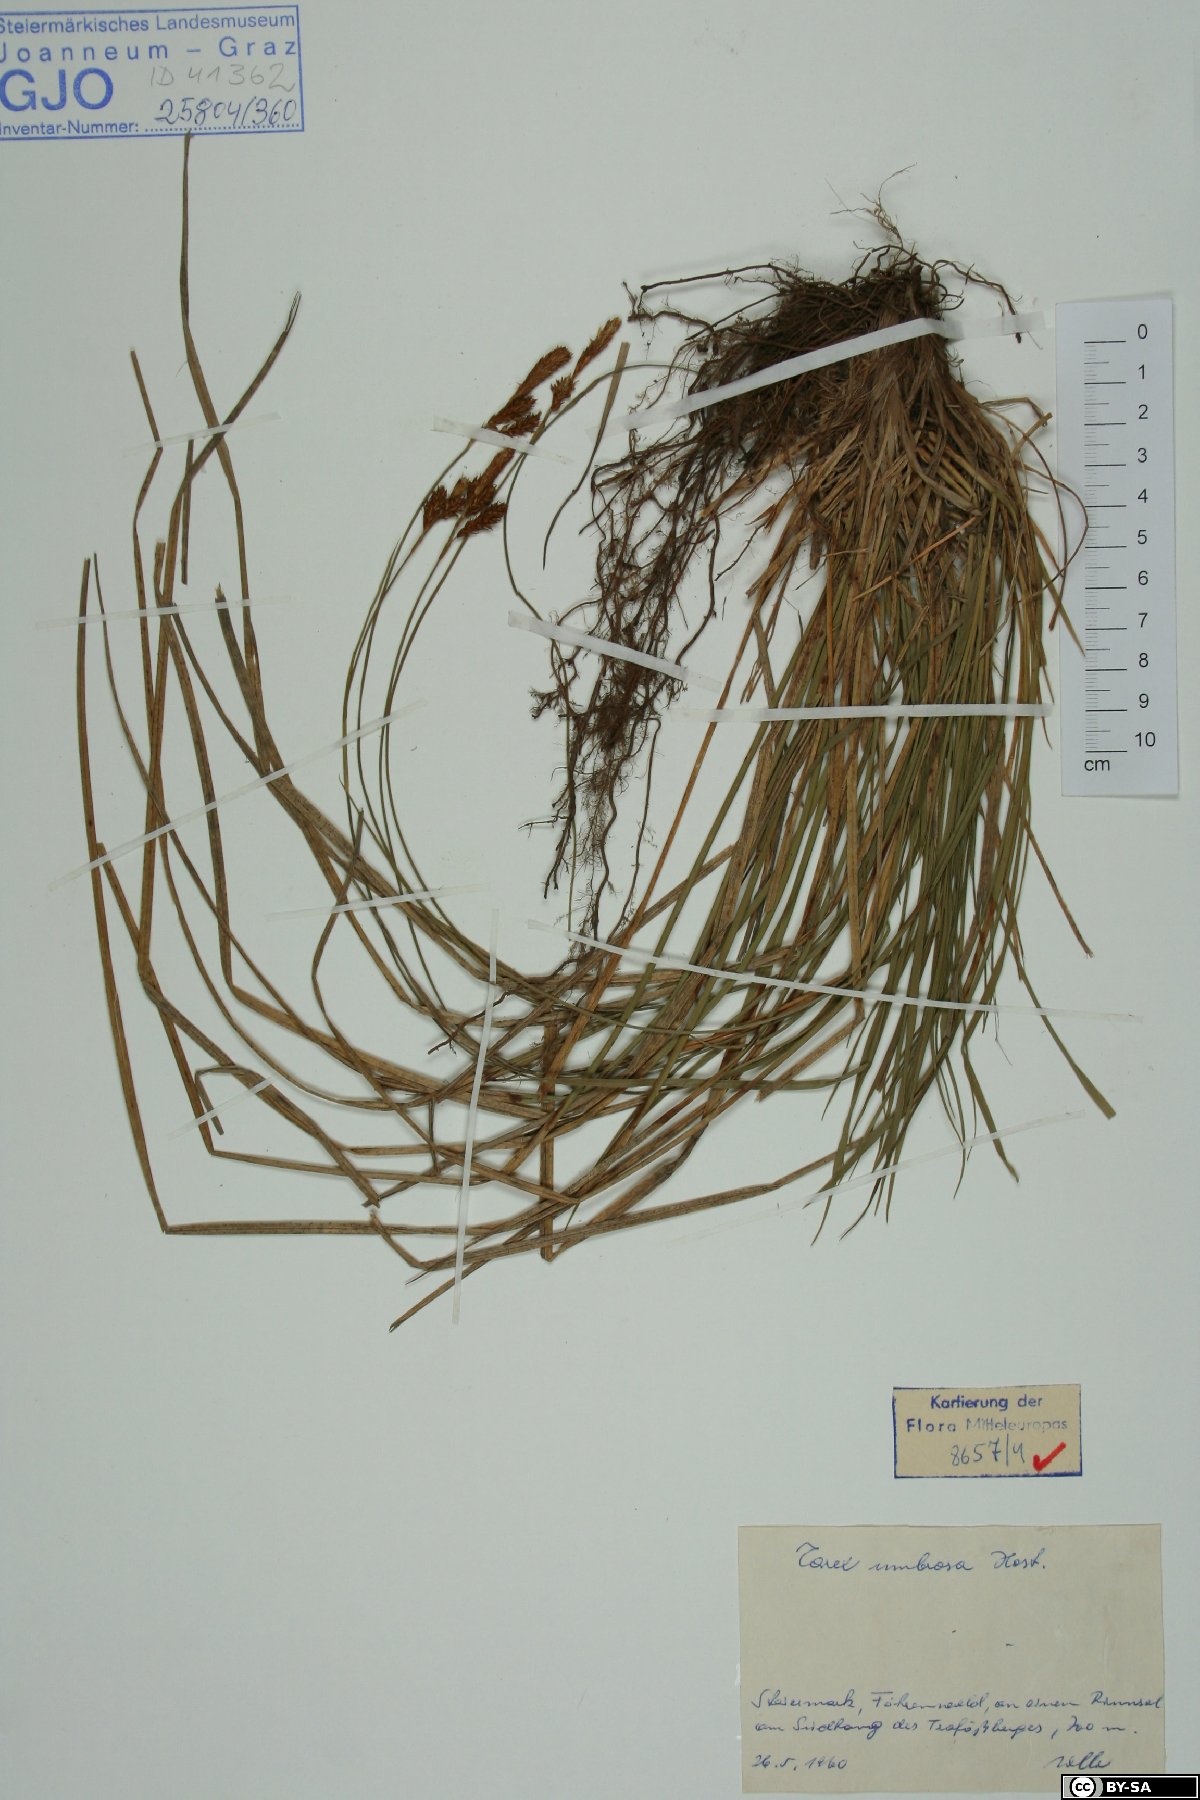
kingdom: Plantae
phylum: Tracheophyta
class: Liliopsida
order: Poales
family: Cyperaceae
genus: Carex
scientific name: Carex umbrosa
